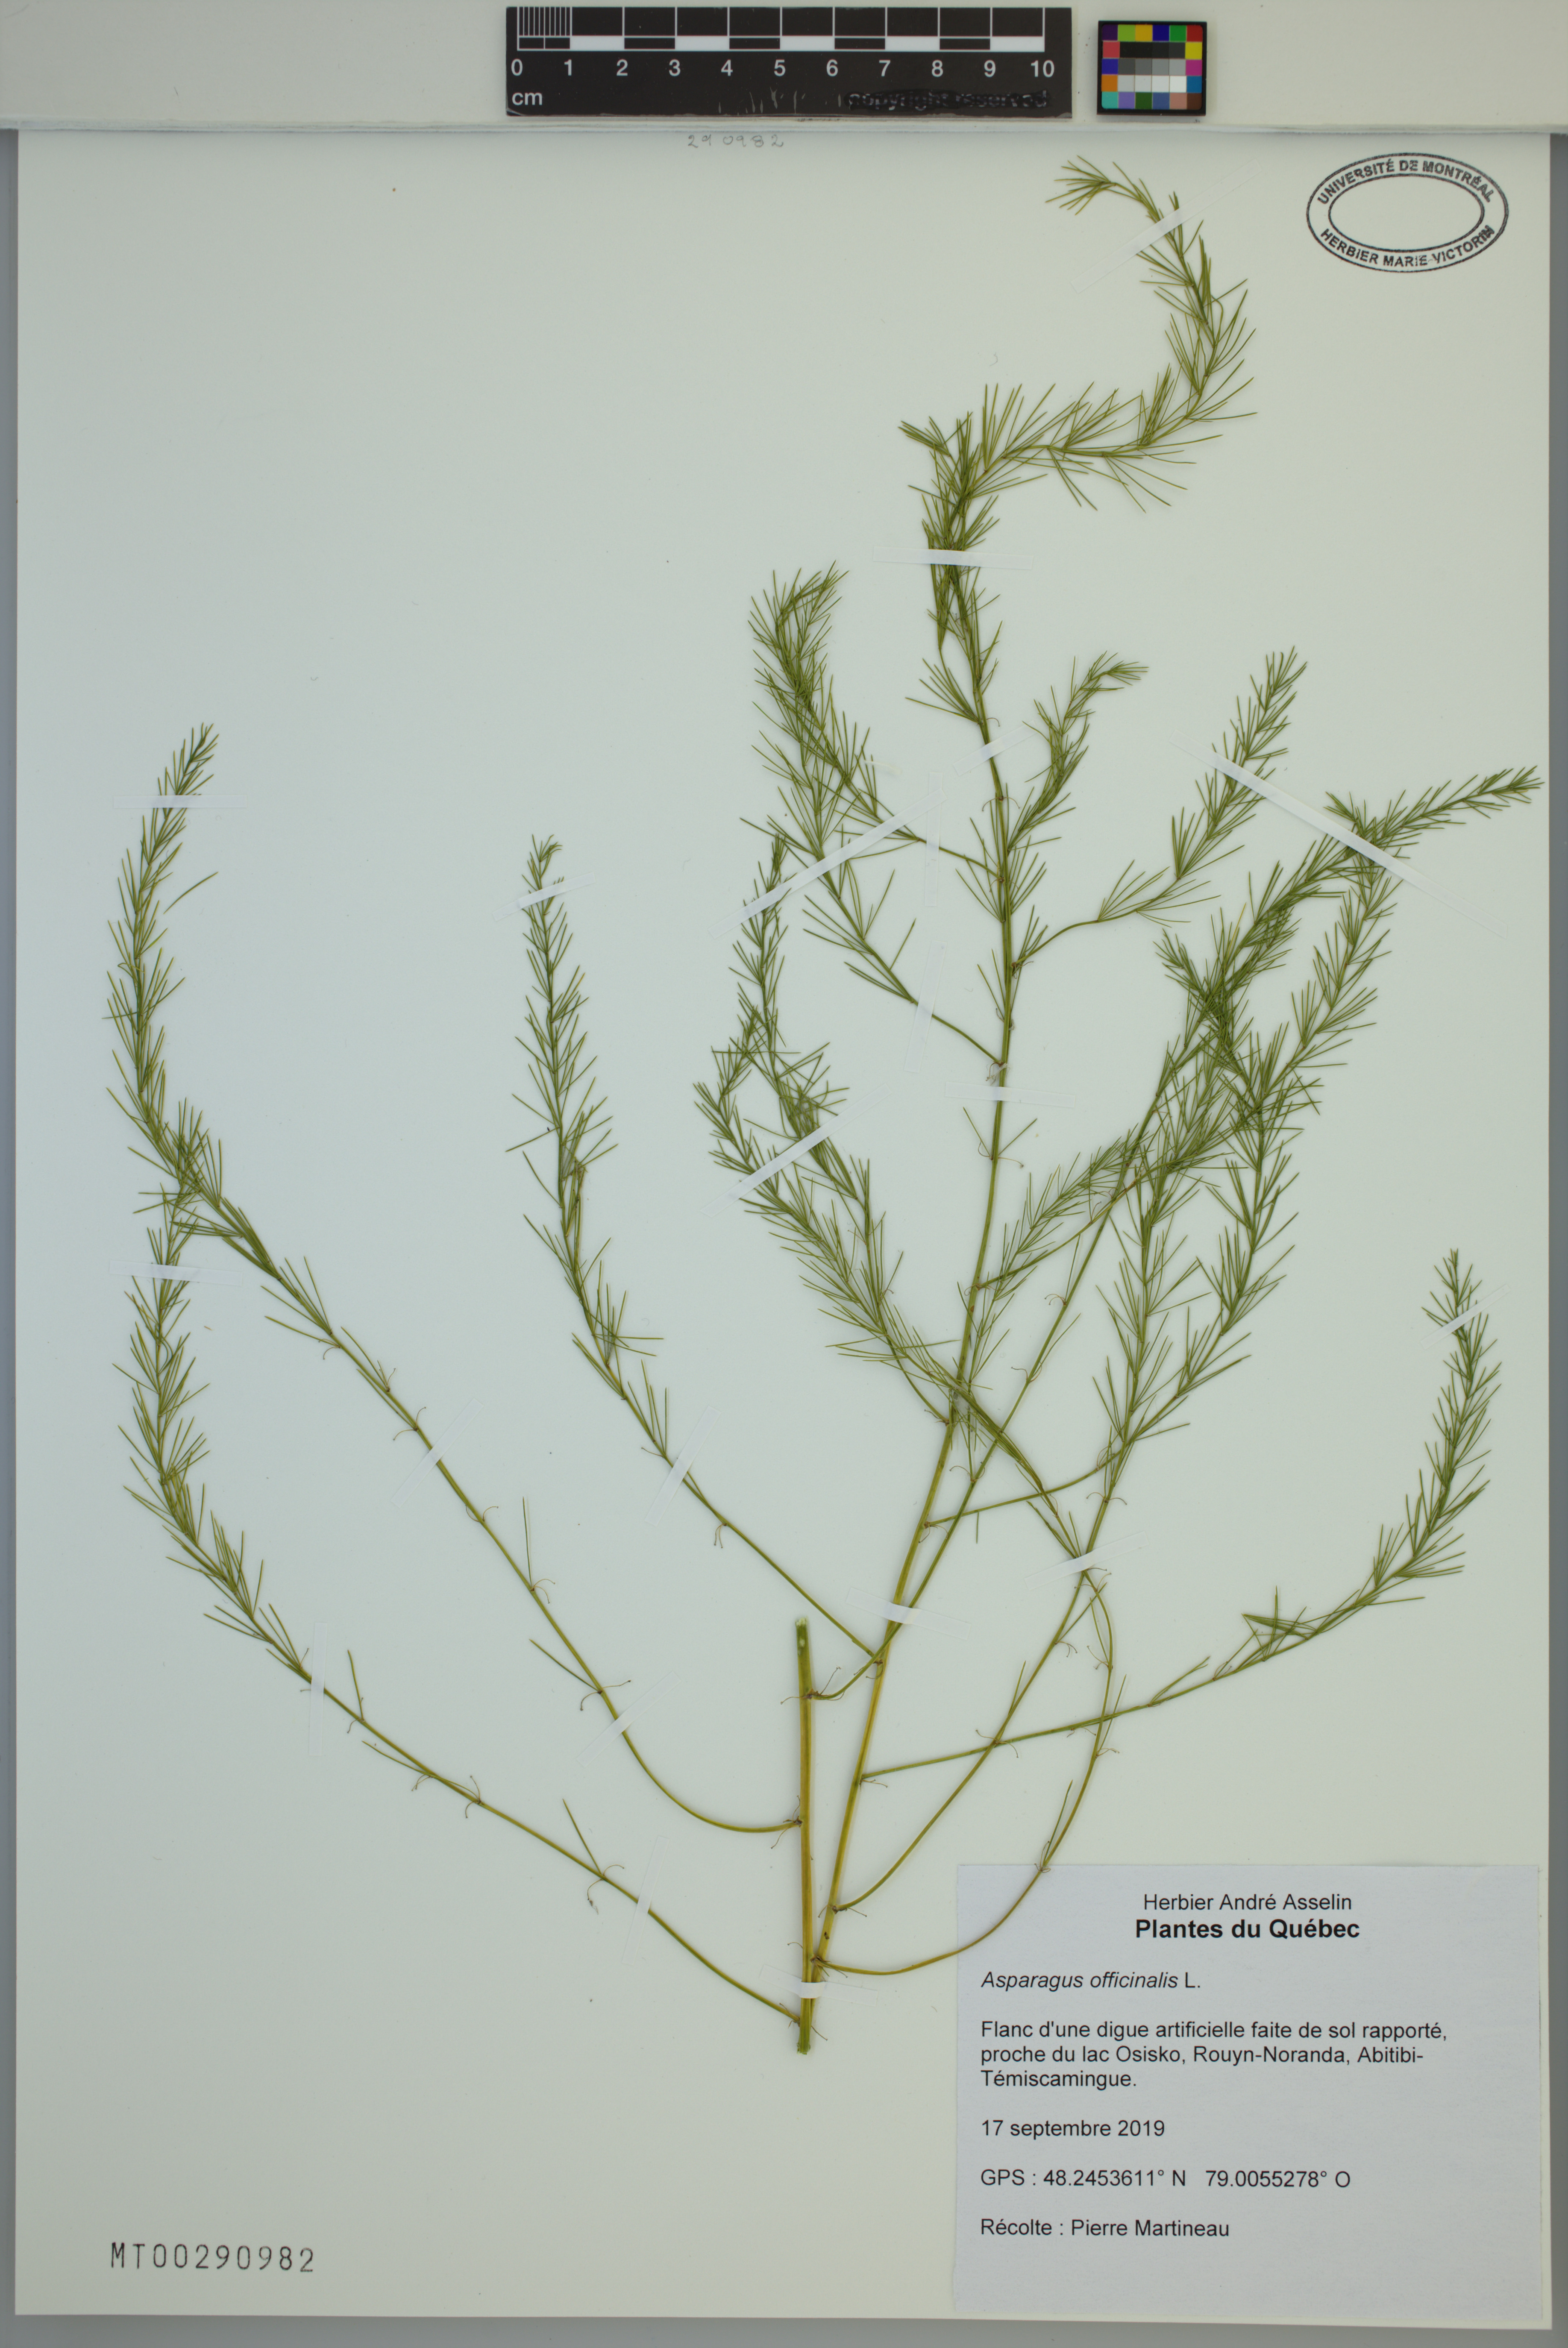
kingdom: Plantae
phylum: Tracheophyta
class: Liliopsida
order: Asparagales
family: Asparagaceae
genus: Asparagus
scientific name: Asparagus officinalis
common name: Garden asparagus
